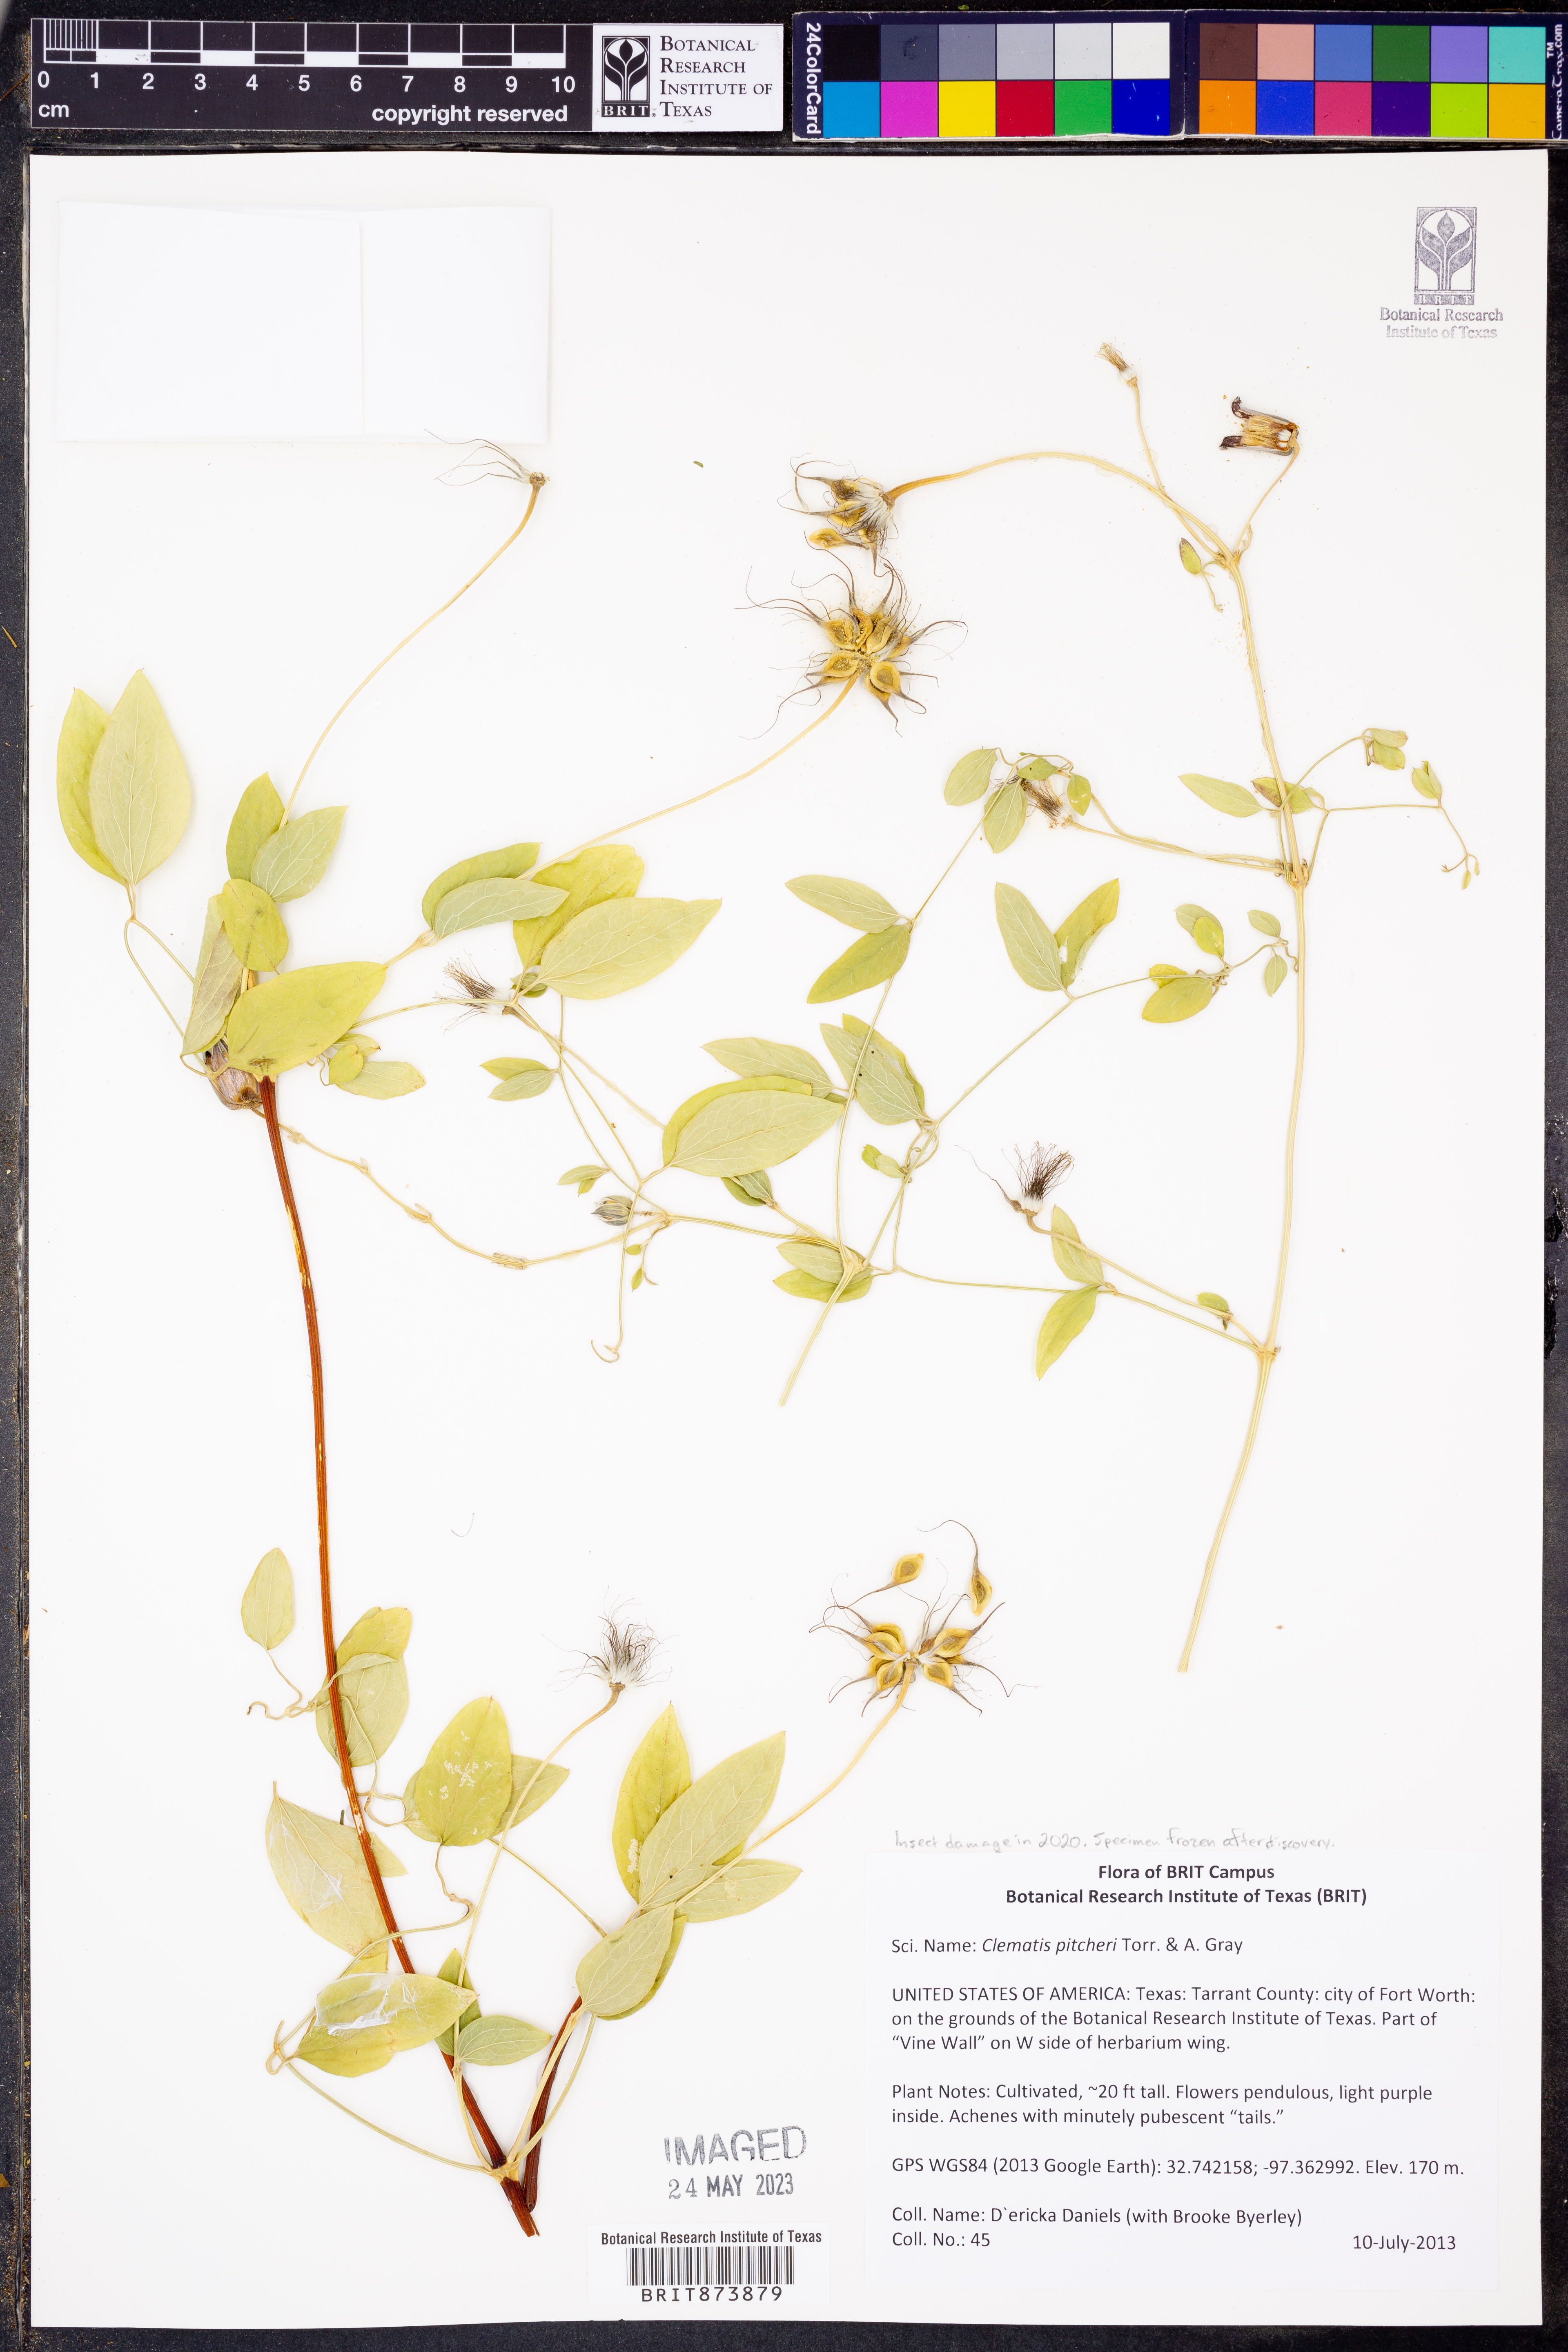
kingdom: Plantae
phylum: Tracheophyta
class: Magnoliopsida
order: Ranunculales
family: Ranunculaceae
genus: Clematis
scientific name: Clematis pitcheri
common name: Bellflower clematis
